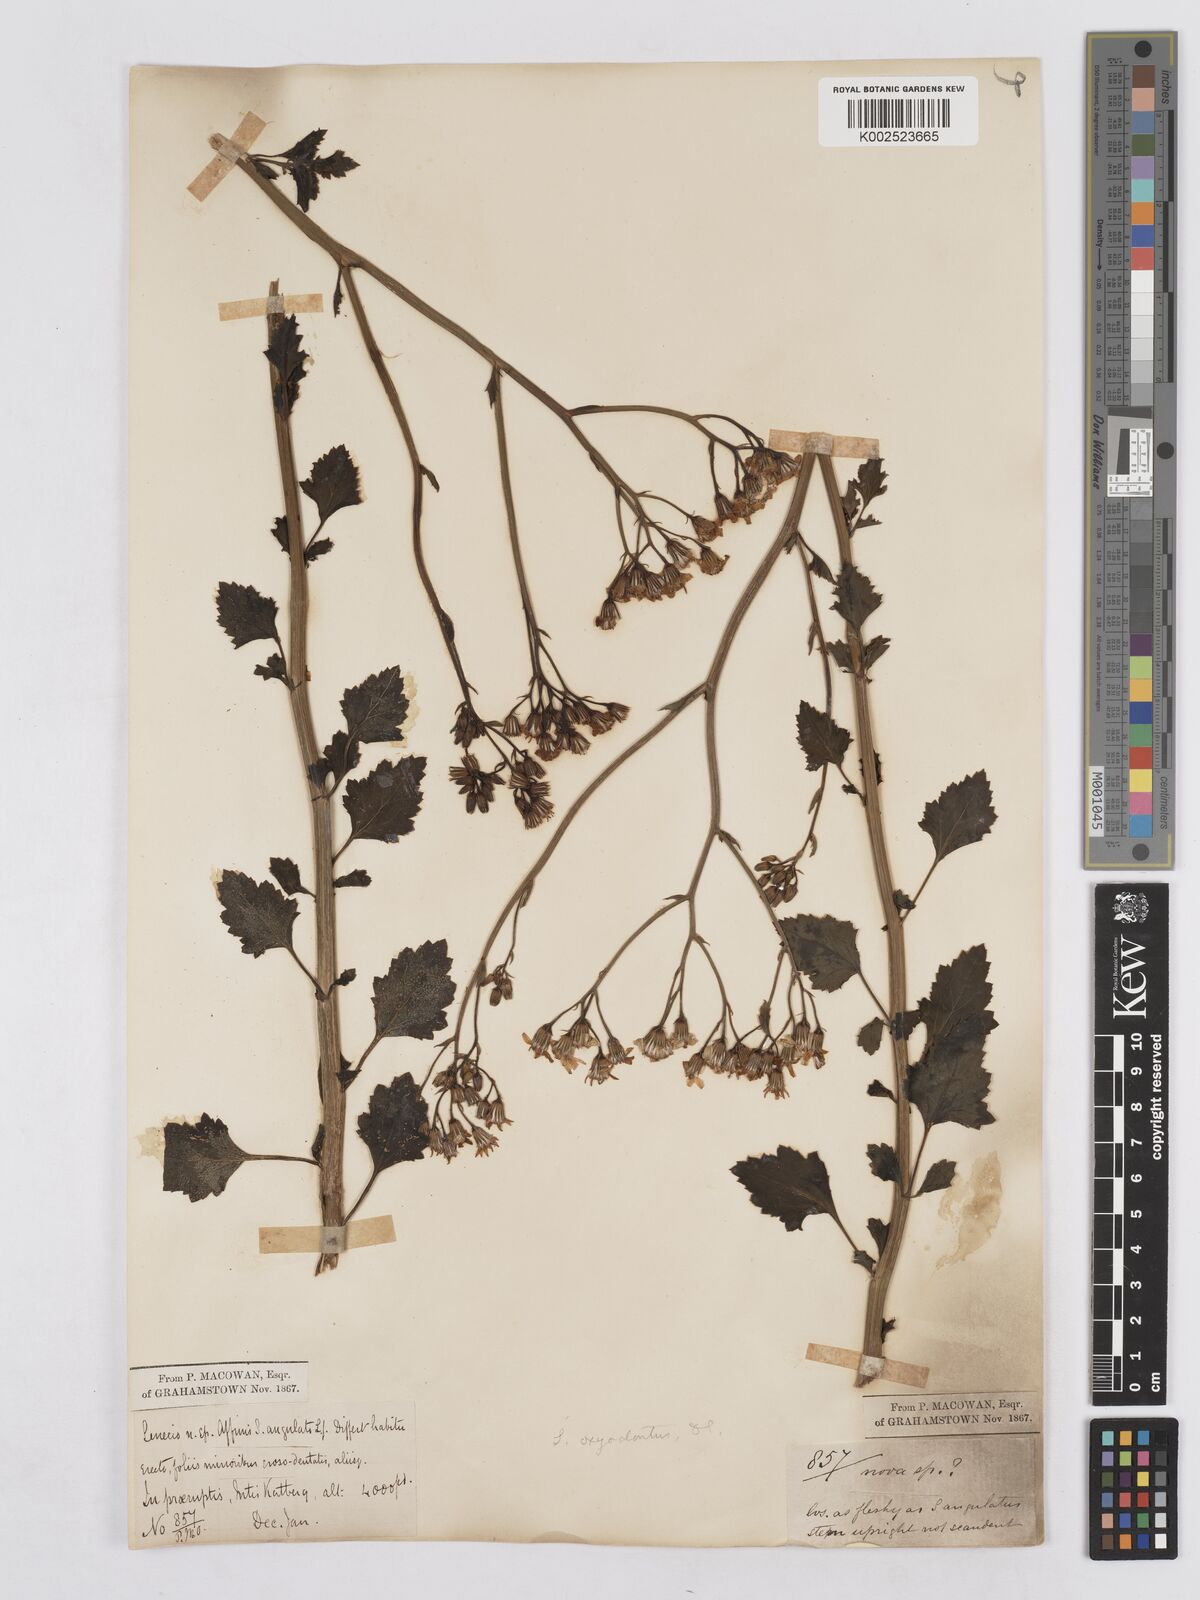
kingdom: Plantae
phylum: Tracheophyta
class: Magnoliopsida
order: Asterales
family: Asteraceae
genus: Senecio
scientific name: Senecio linifolius
